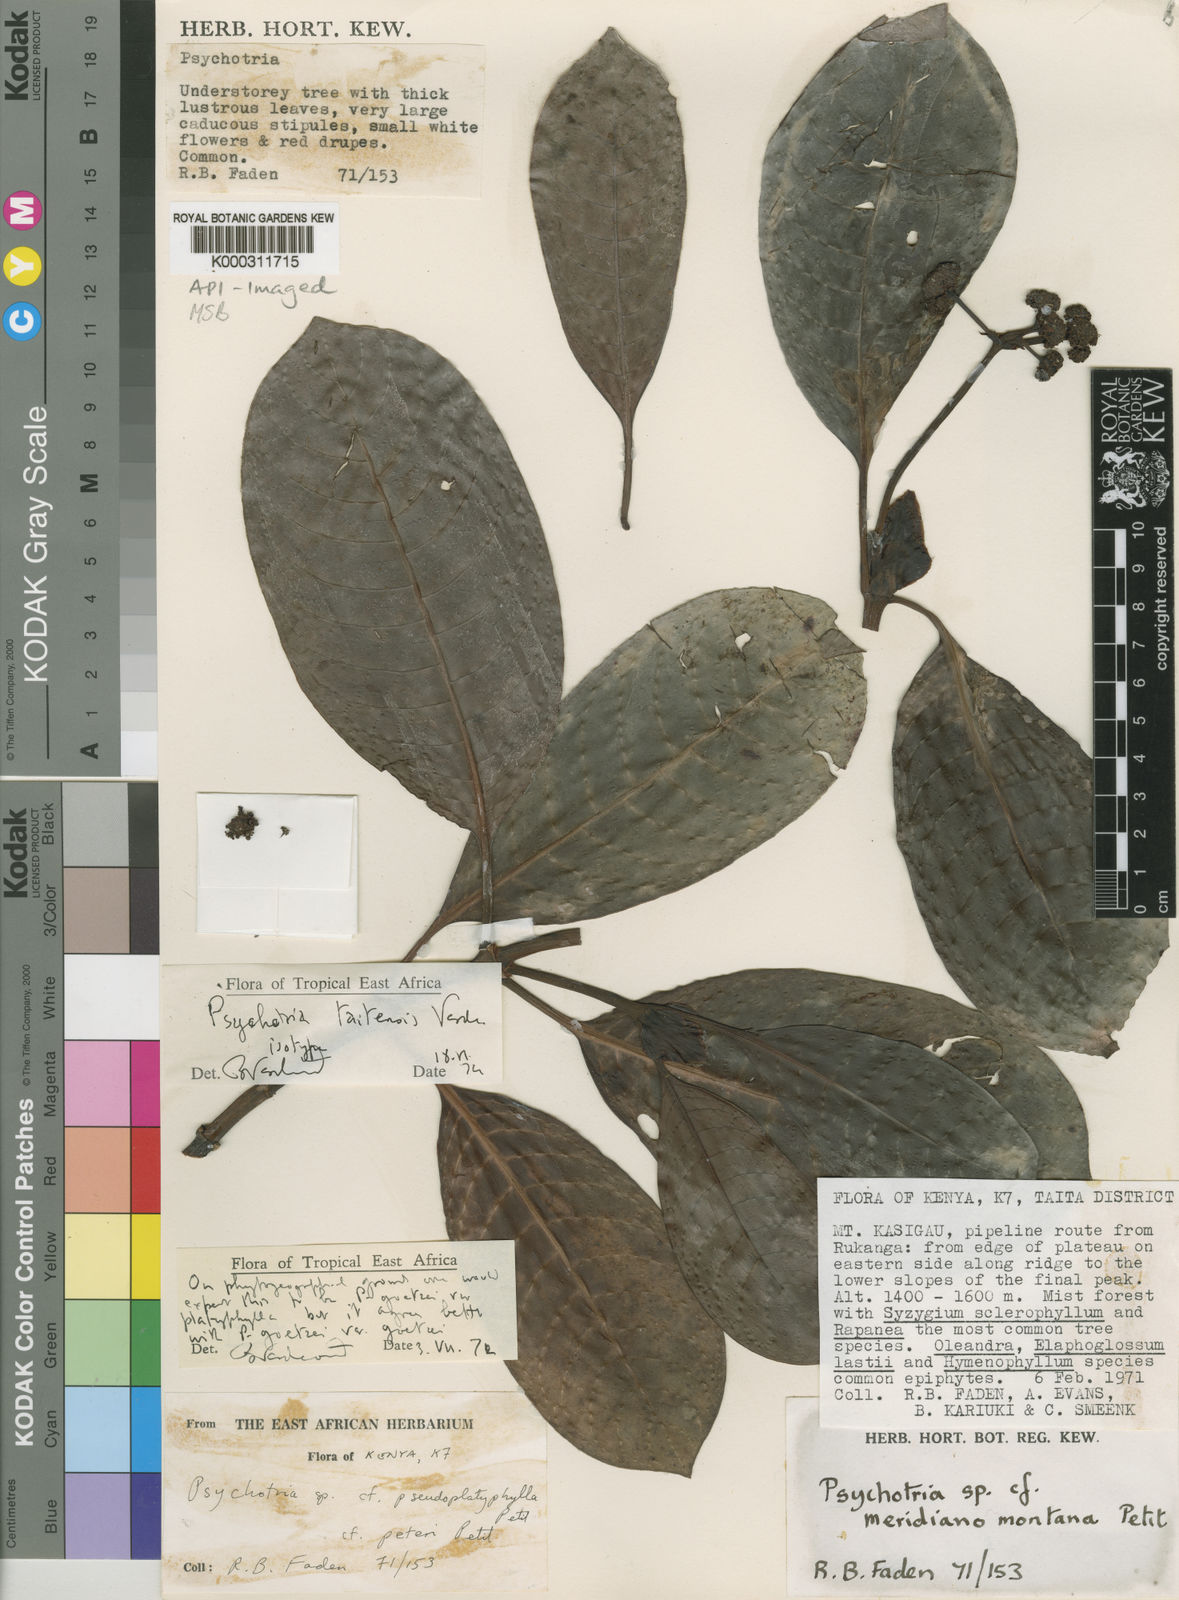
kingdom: Plantae
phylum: Tracheophyta
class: Magnoliopsida
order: Gentianales
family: Rubiaceae
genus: Psychotria
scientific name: Psychotria taitensis
